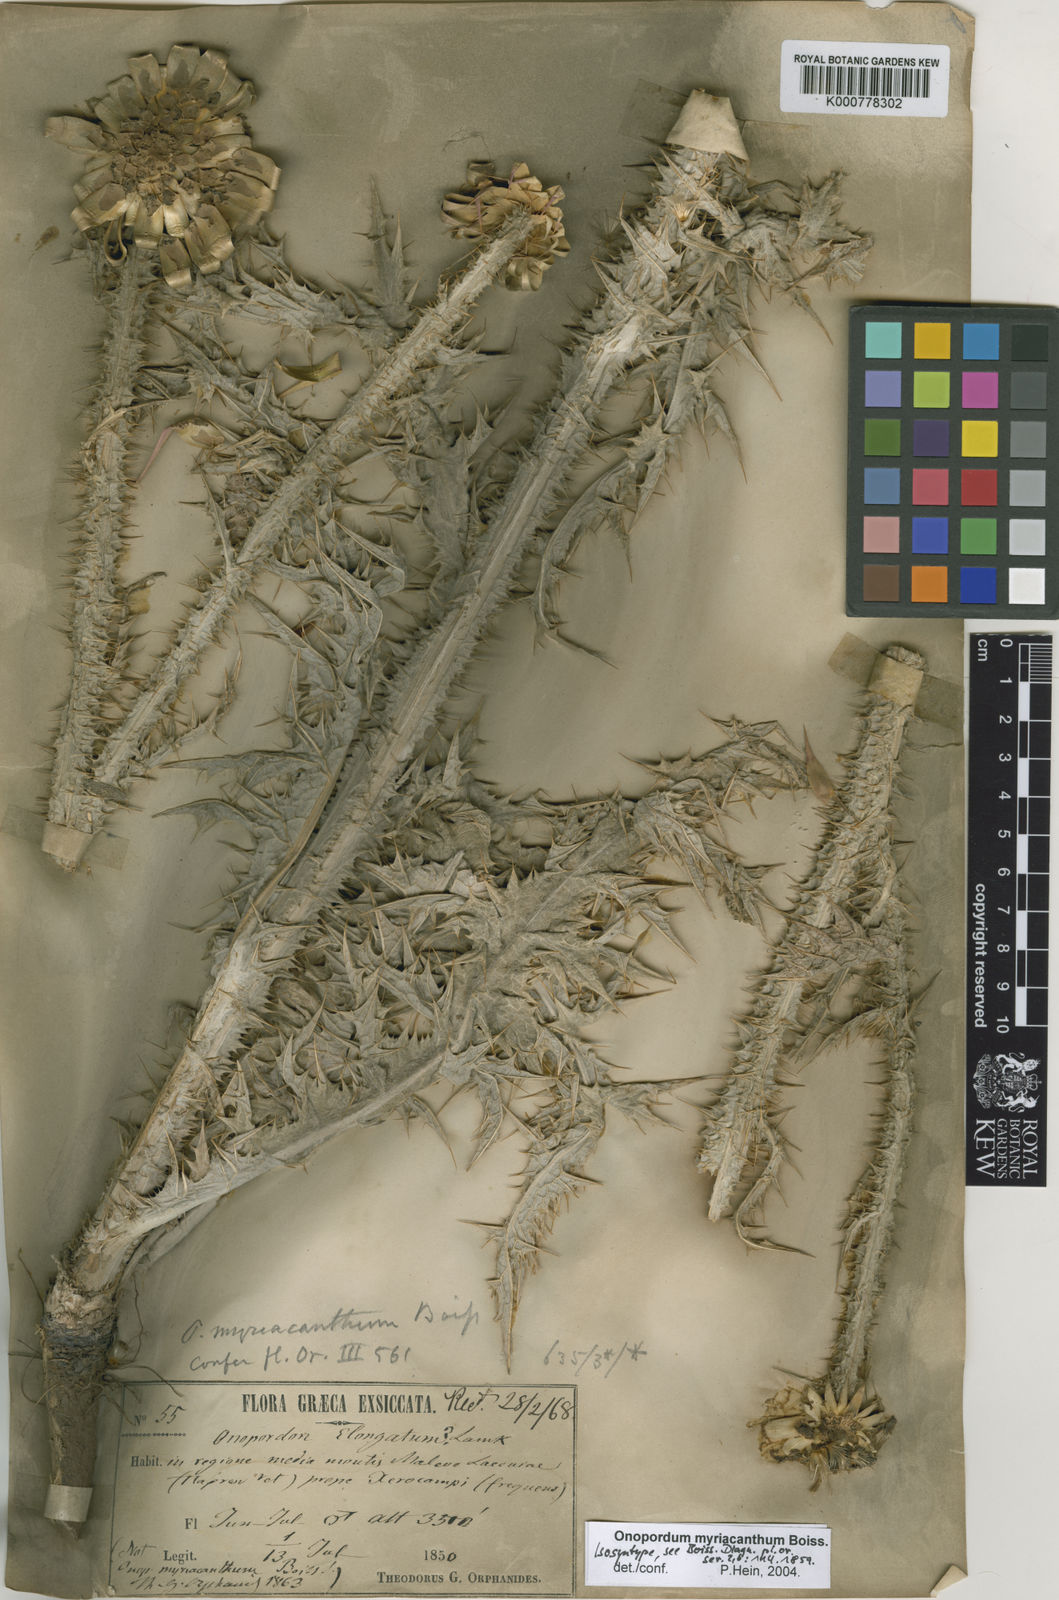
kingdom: Plantae
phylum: Tracheophyta
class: Magnoliopsida
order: Asterales
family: Asteraceae
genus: Onopordum
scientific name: Onopordum myriacanthum
